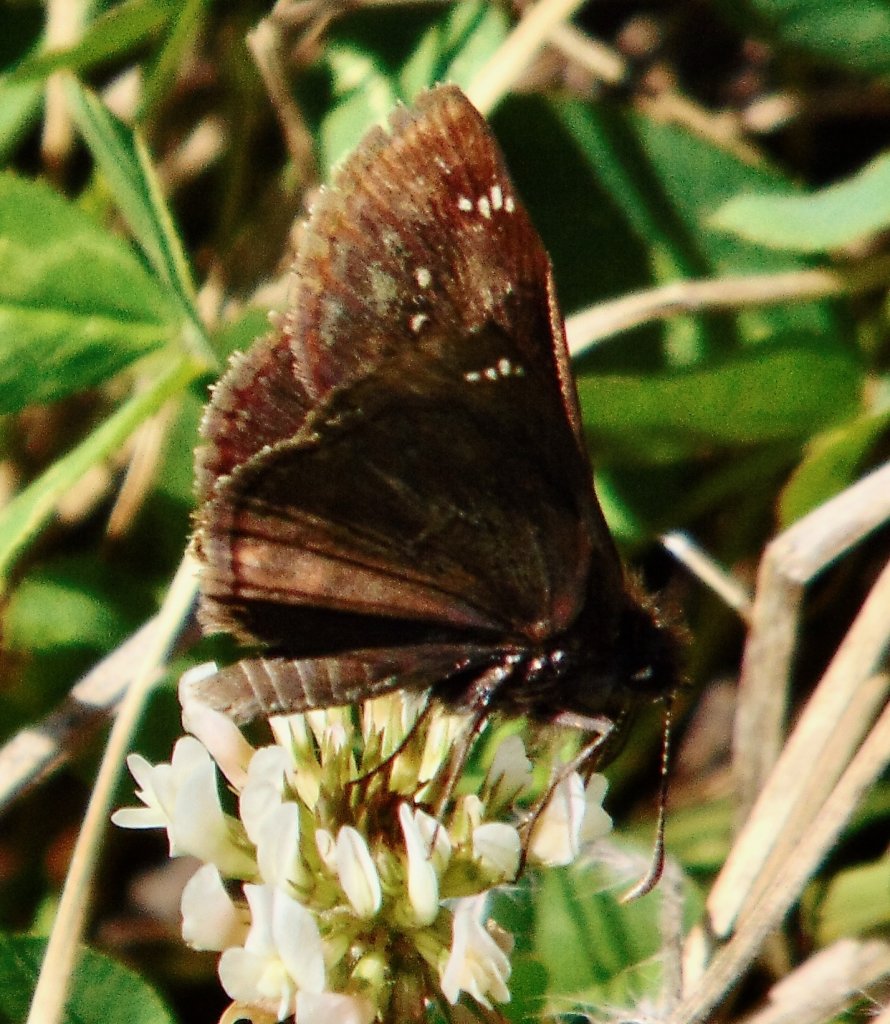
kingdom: Animalia
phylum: Arthropoda
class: Insecta
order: Lepidoptera
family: Hesperiidae
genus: Gesta
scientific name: Gesta
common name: Wild Indigo Duskywing
